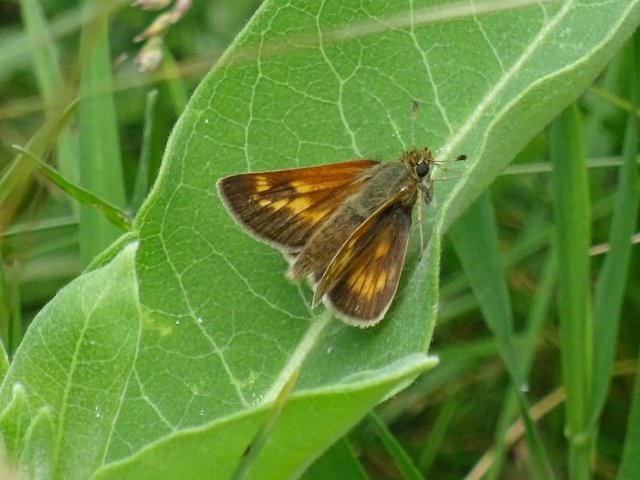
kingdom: Animalia
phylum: Arthropoda
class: Insecta
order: Lepidoptera
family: Hesperiidae
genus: Polites
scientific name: Polites
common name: Long Dash Skipper
